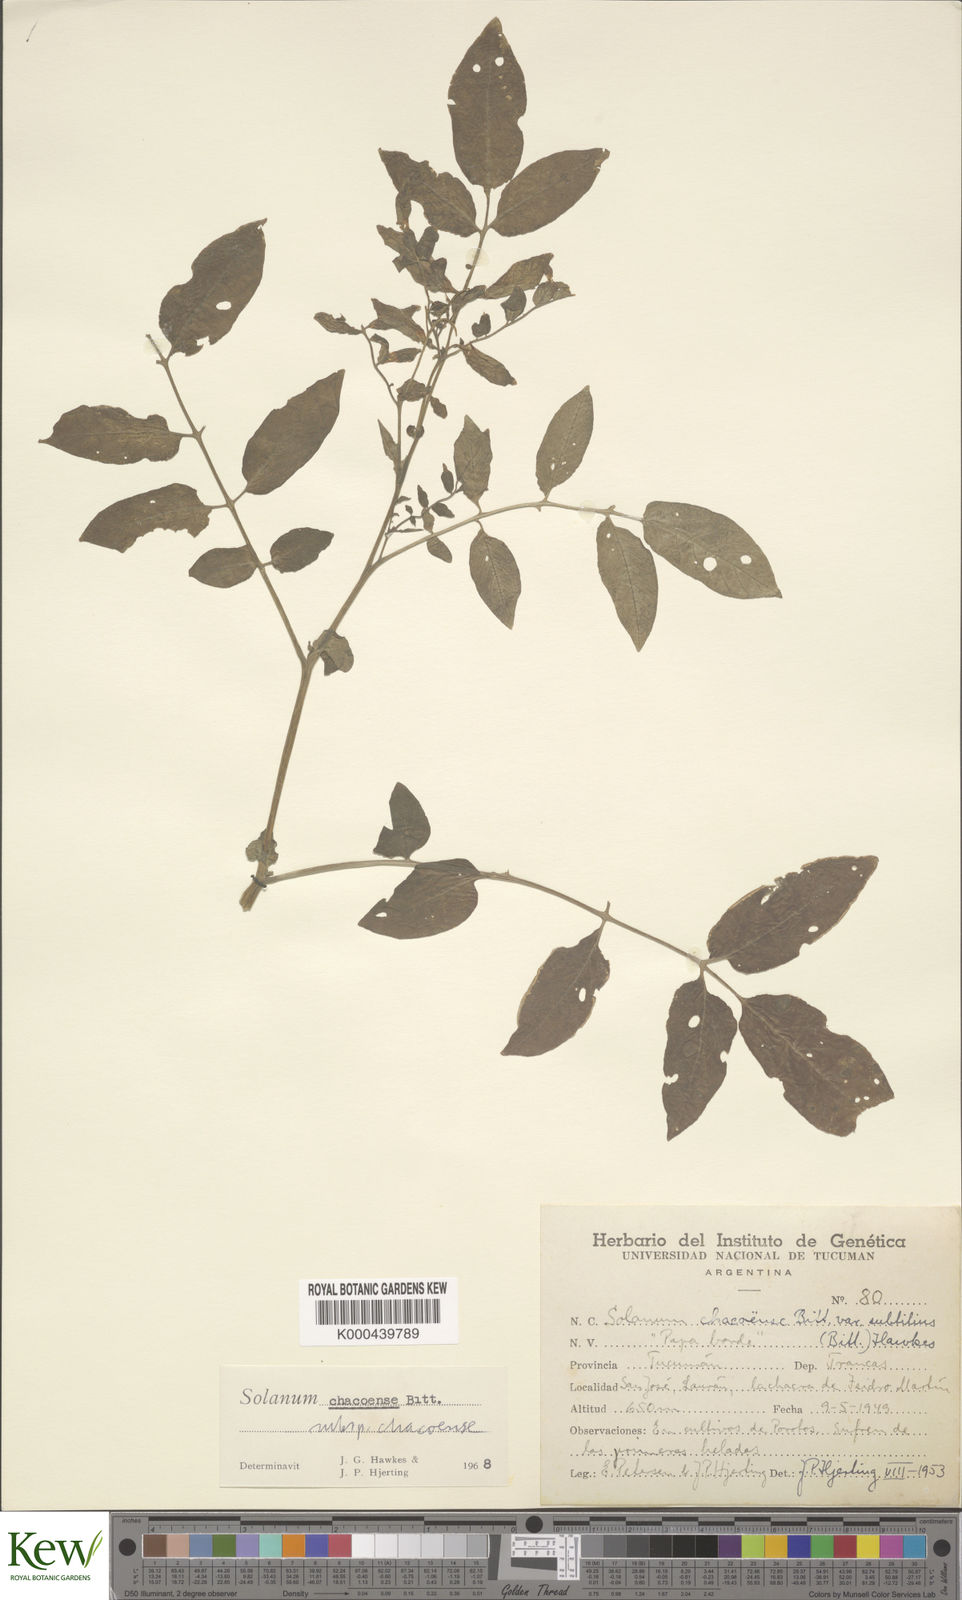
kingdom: Plantae
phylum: Tracheophyta
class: Magnoliopsida
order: Solanales
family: Solanaceae
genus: Solanum
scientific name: Solanum chacoense
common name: Chaco potato
